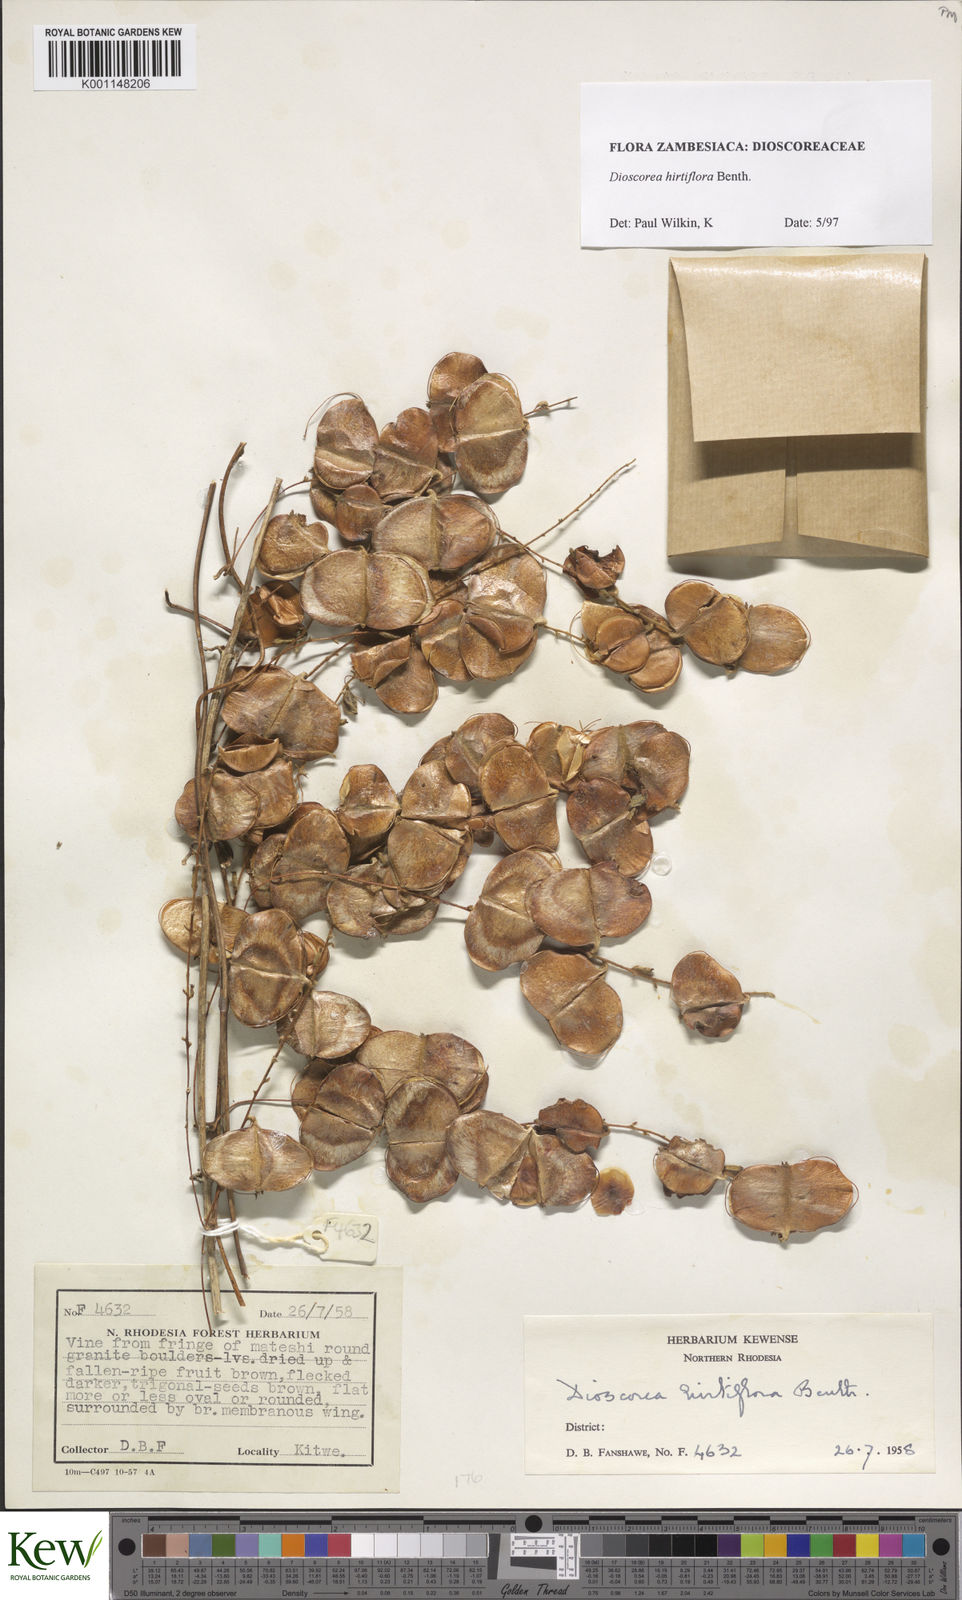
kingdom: Plantae
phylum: Tracheophyta
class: Liliopsida
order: Dioscoreales
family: Dioscoreaceae
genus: Dioscorea
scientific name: Dioscorea hirtiflora
